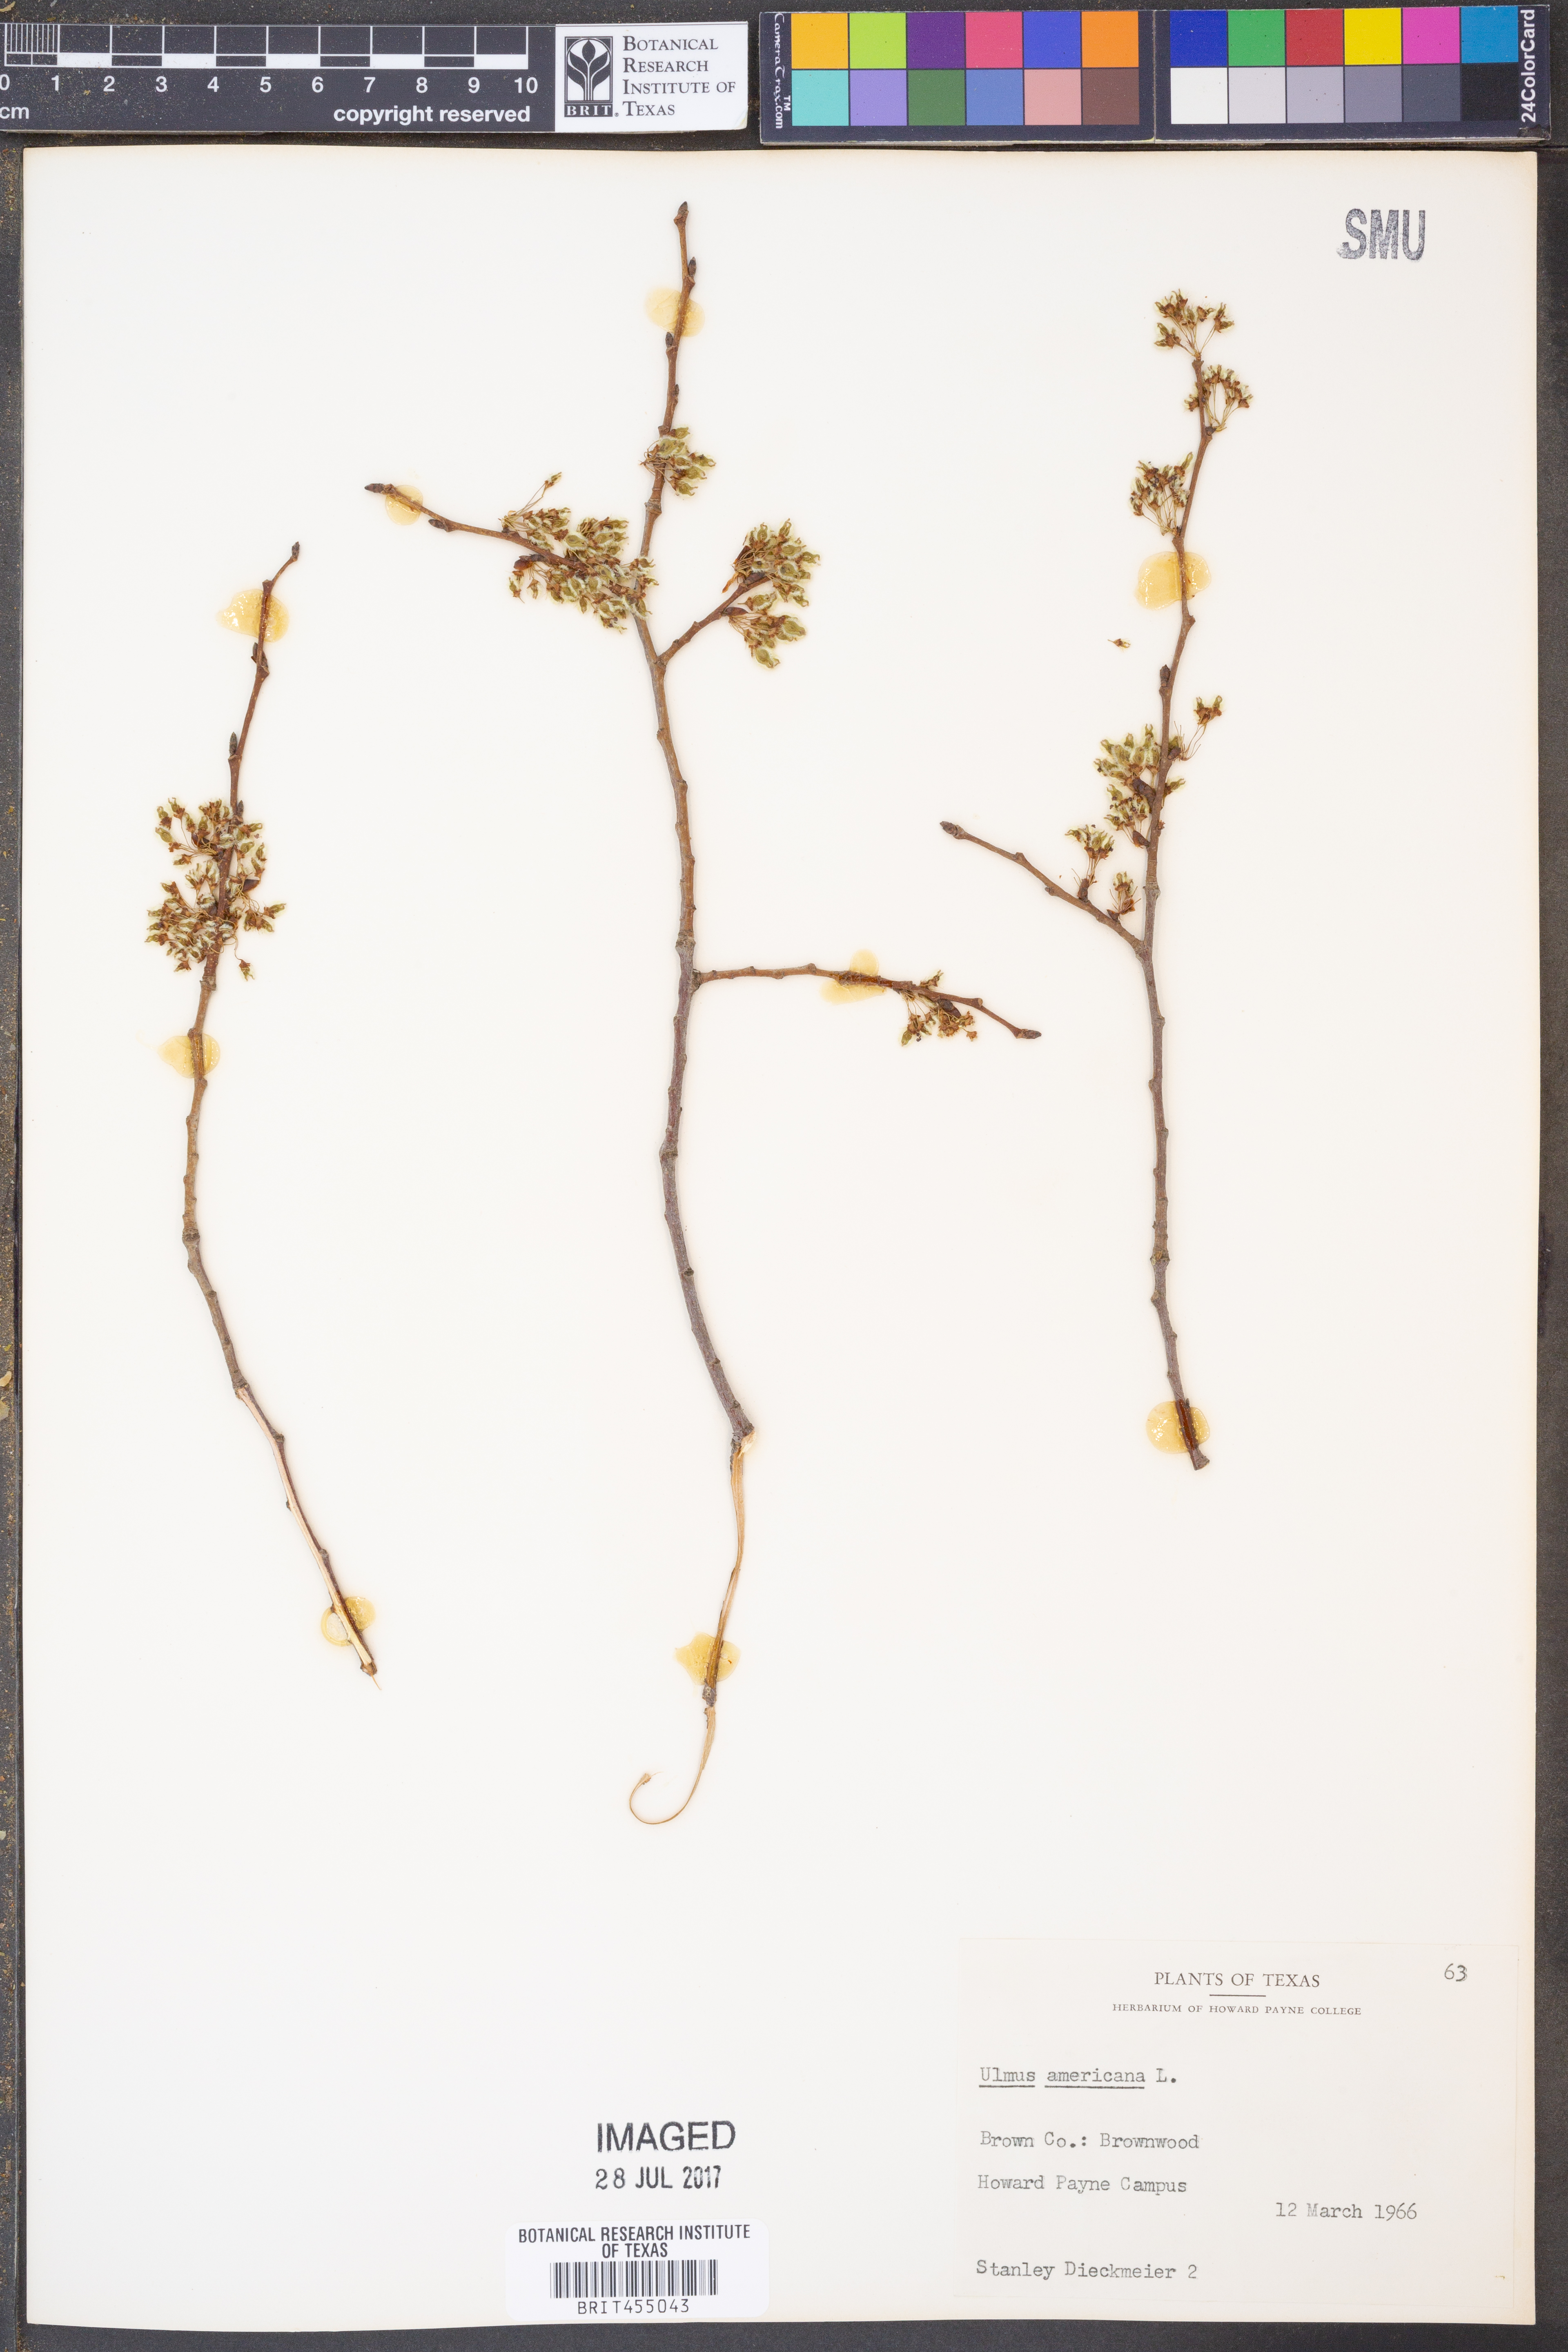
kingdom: Plantae
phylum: Tracheophyta
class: Magnoliopsida
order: Rosales
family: Ulmaceae
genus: Ulmus
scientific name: Ulmus americana
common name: American elm
